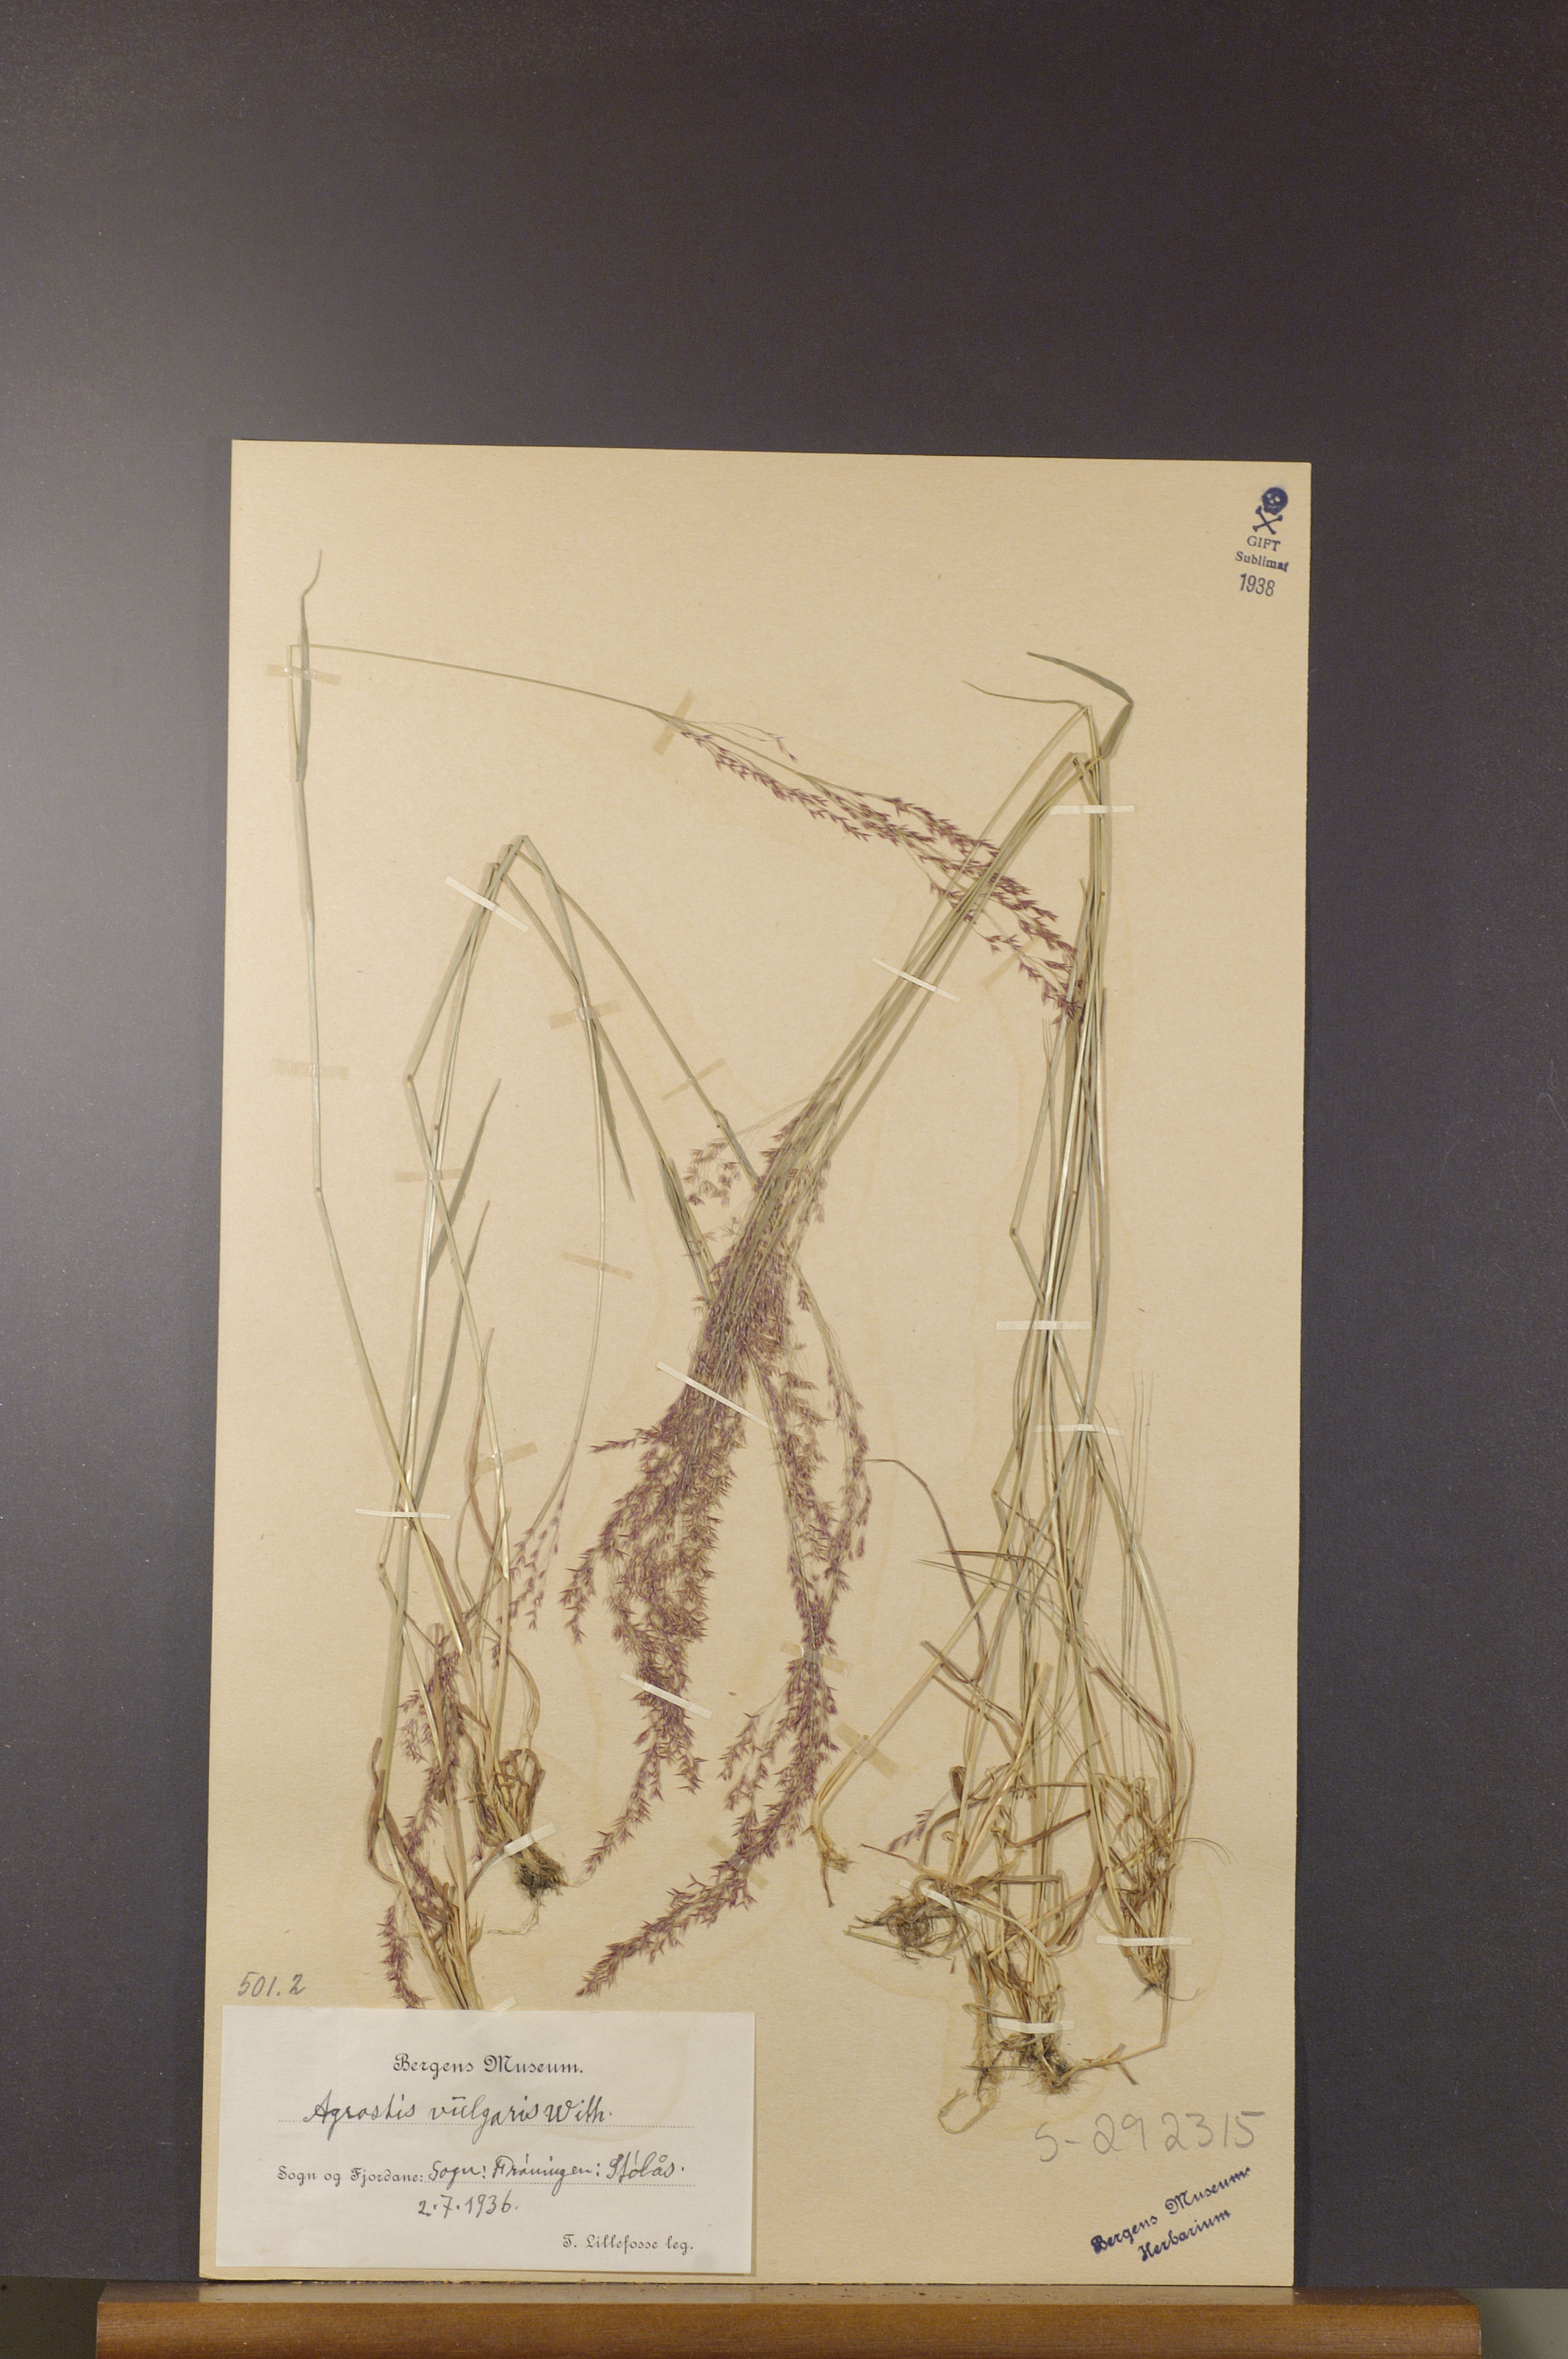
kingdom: Plantae
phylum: Tracheophyta
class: Liliopsida
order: Poales
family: Poaceae
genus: Agrostis
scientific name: Agrostis capillaris
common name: Colonial bentgrass
